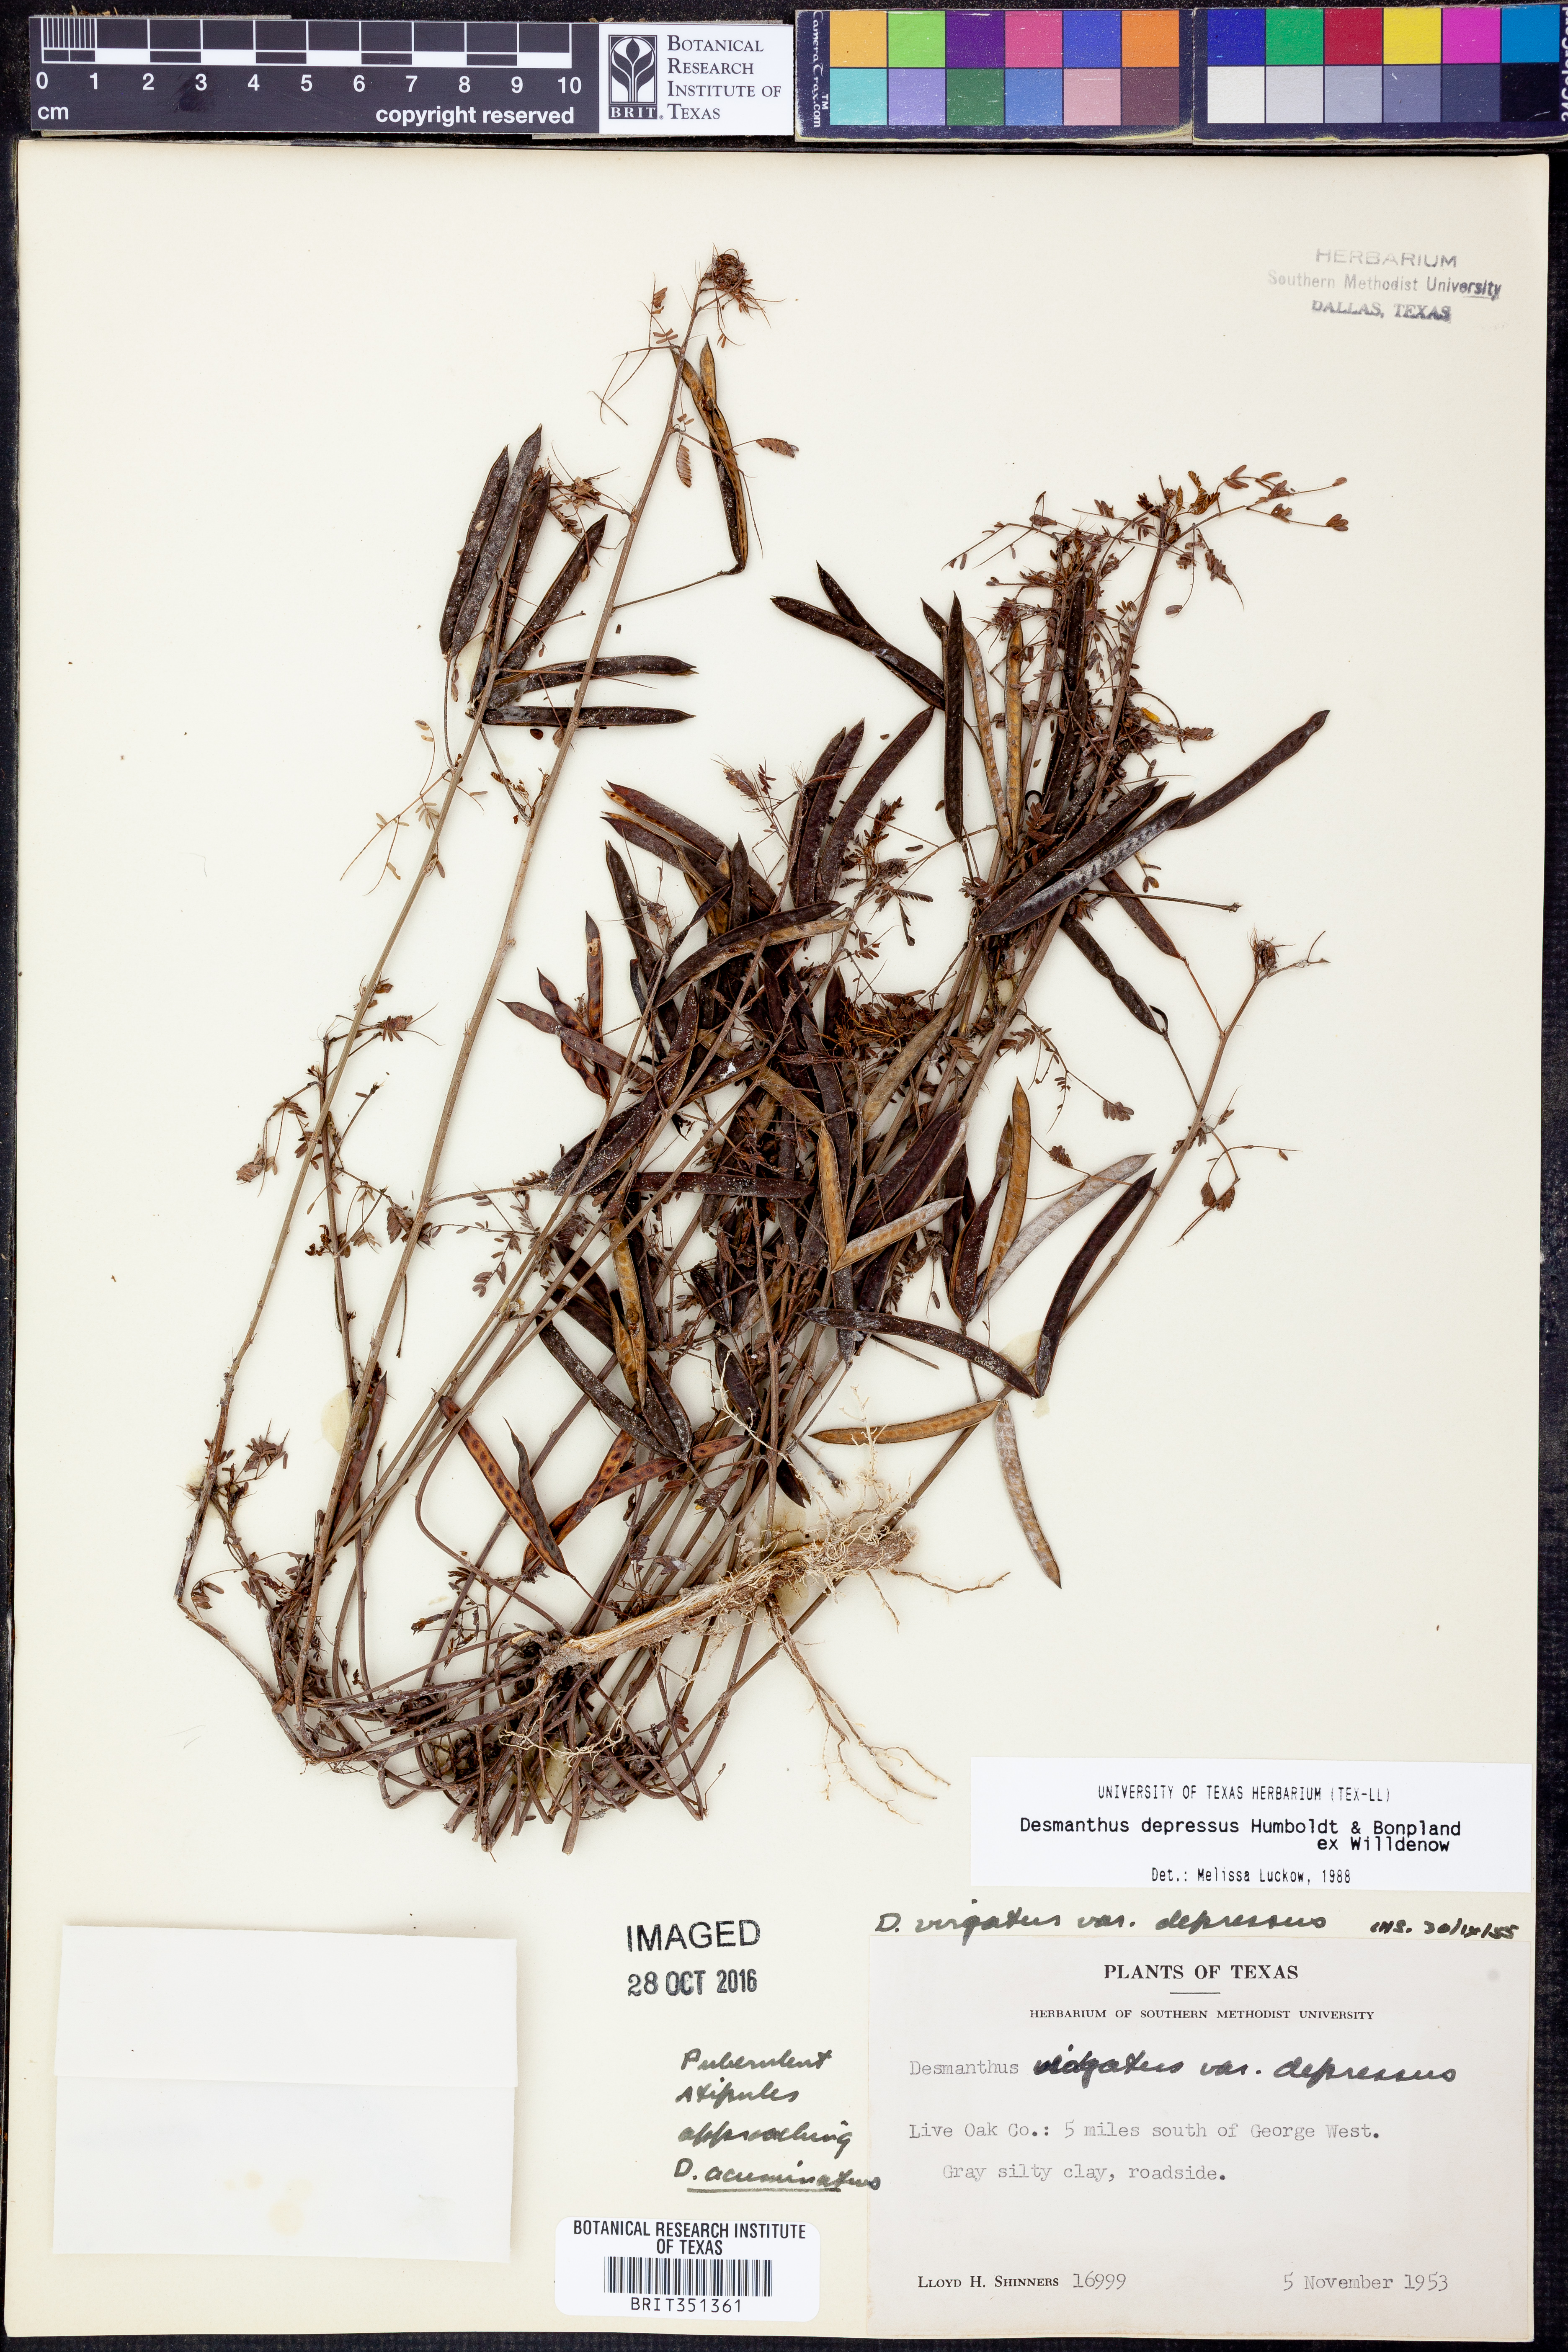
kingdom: Plantae
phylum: Tracheophyta
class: Magnoliopsida
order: Fabales
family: Fabaceae
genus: Desmanthus
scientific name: Desmanthus virgatus
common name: Wild tantan
